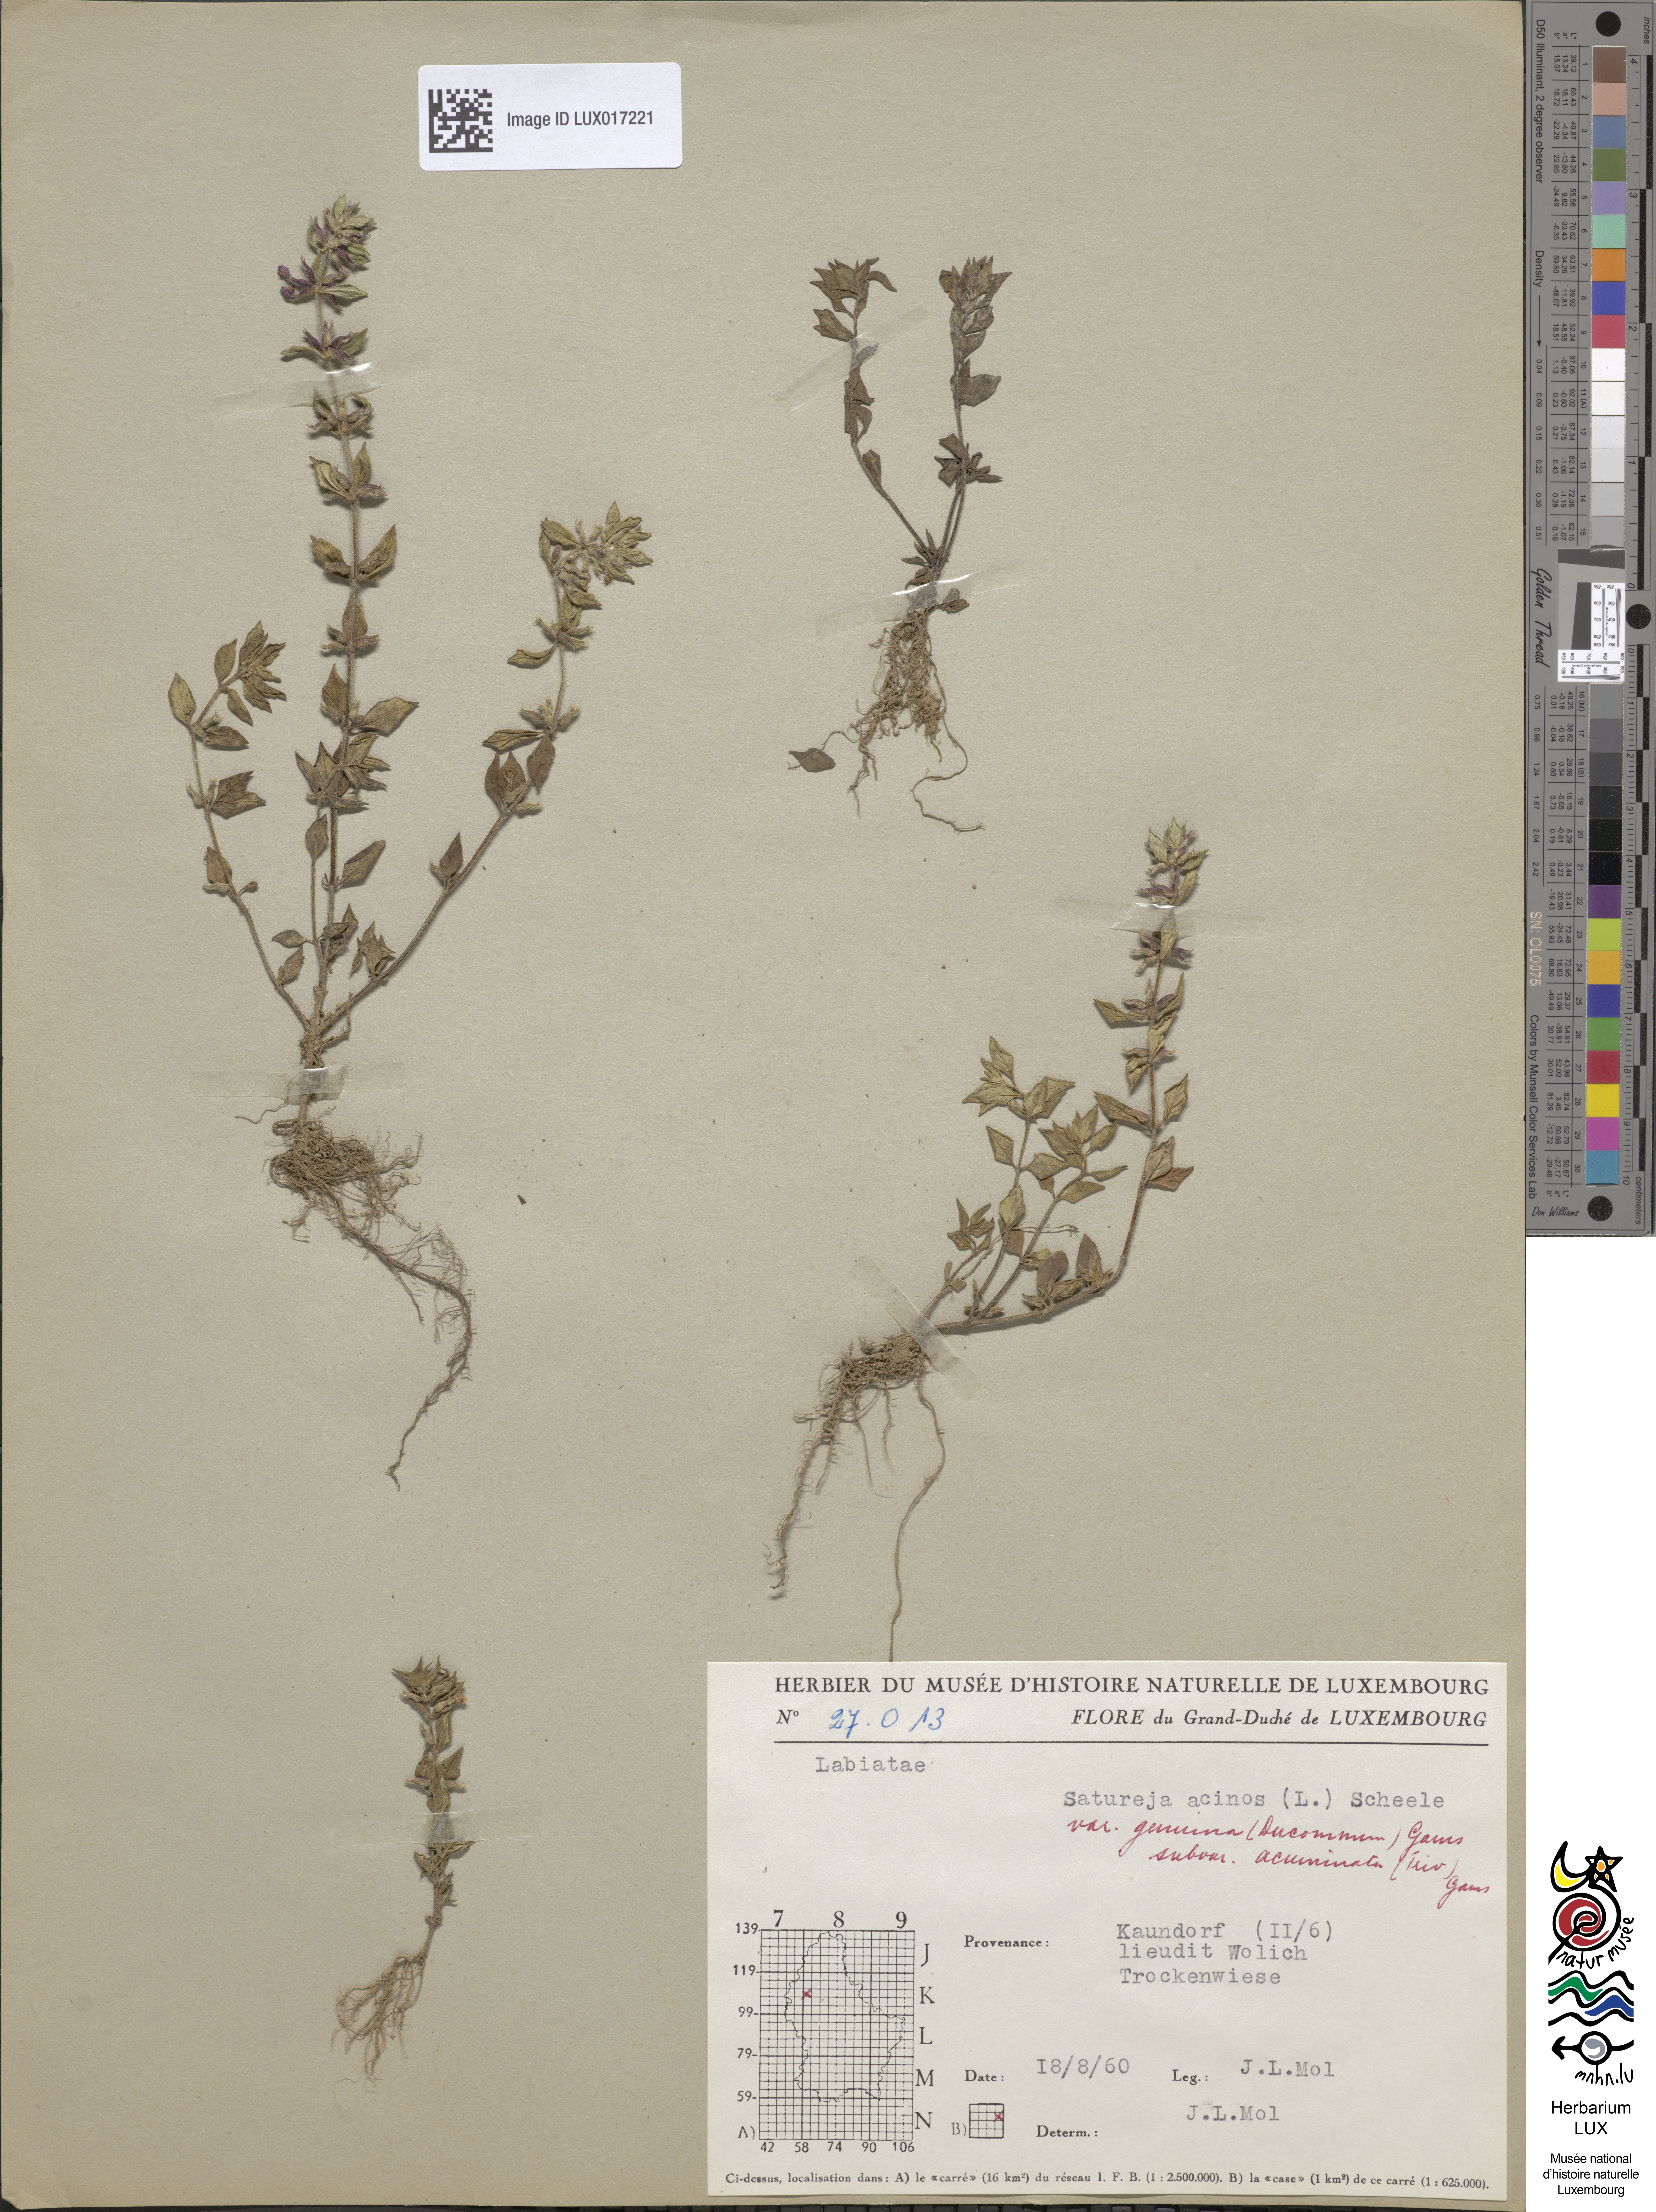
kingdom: Plantae
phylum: Tracheophyta
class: Magnoliopsida
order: Lamiales
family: Lamiaceae
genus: Clinopodium
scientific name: Clinopodium acinos
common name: Basil thyme
